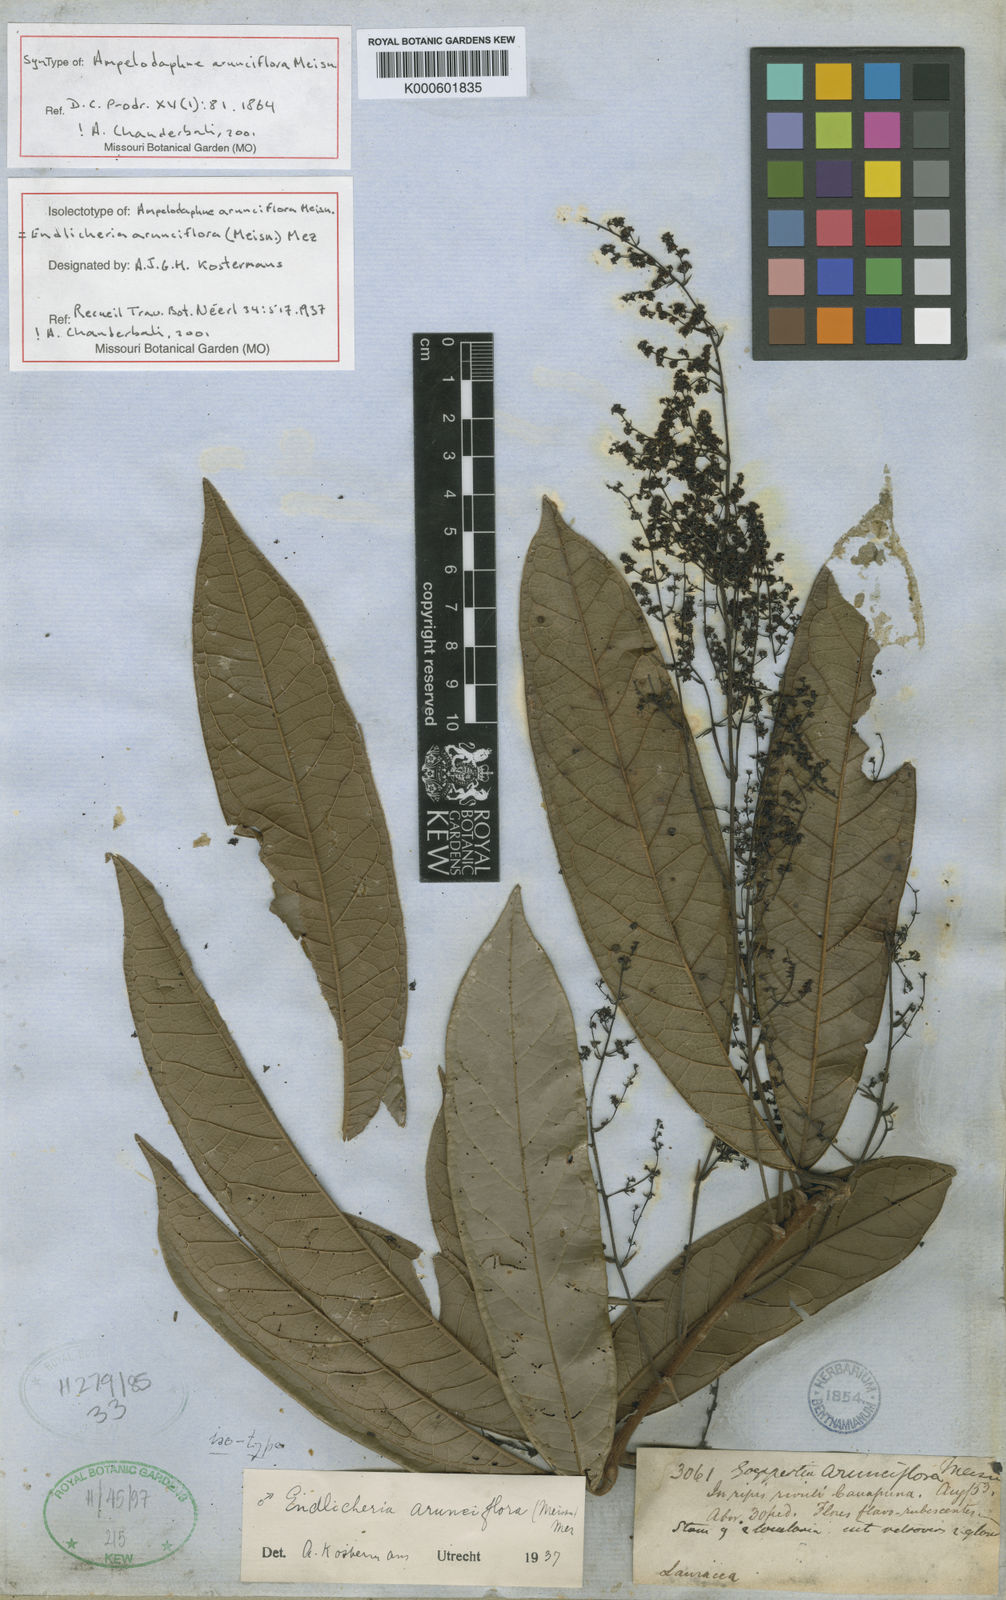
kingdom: Plantae
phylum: Tracheophyta
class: Magnoliopsida
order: Laurales
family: Lauraceae
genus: Endlicheria
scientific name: Endlicheria arunciflora
